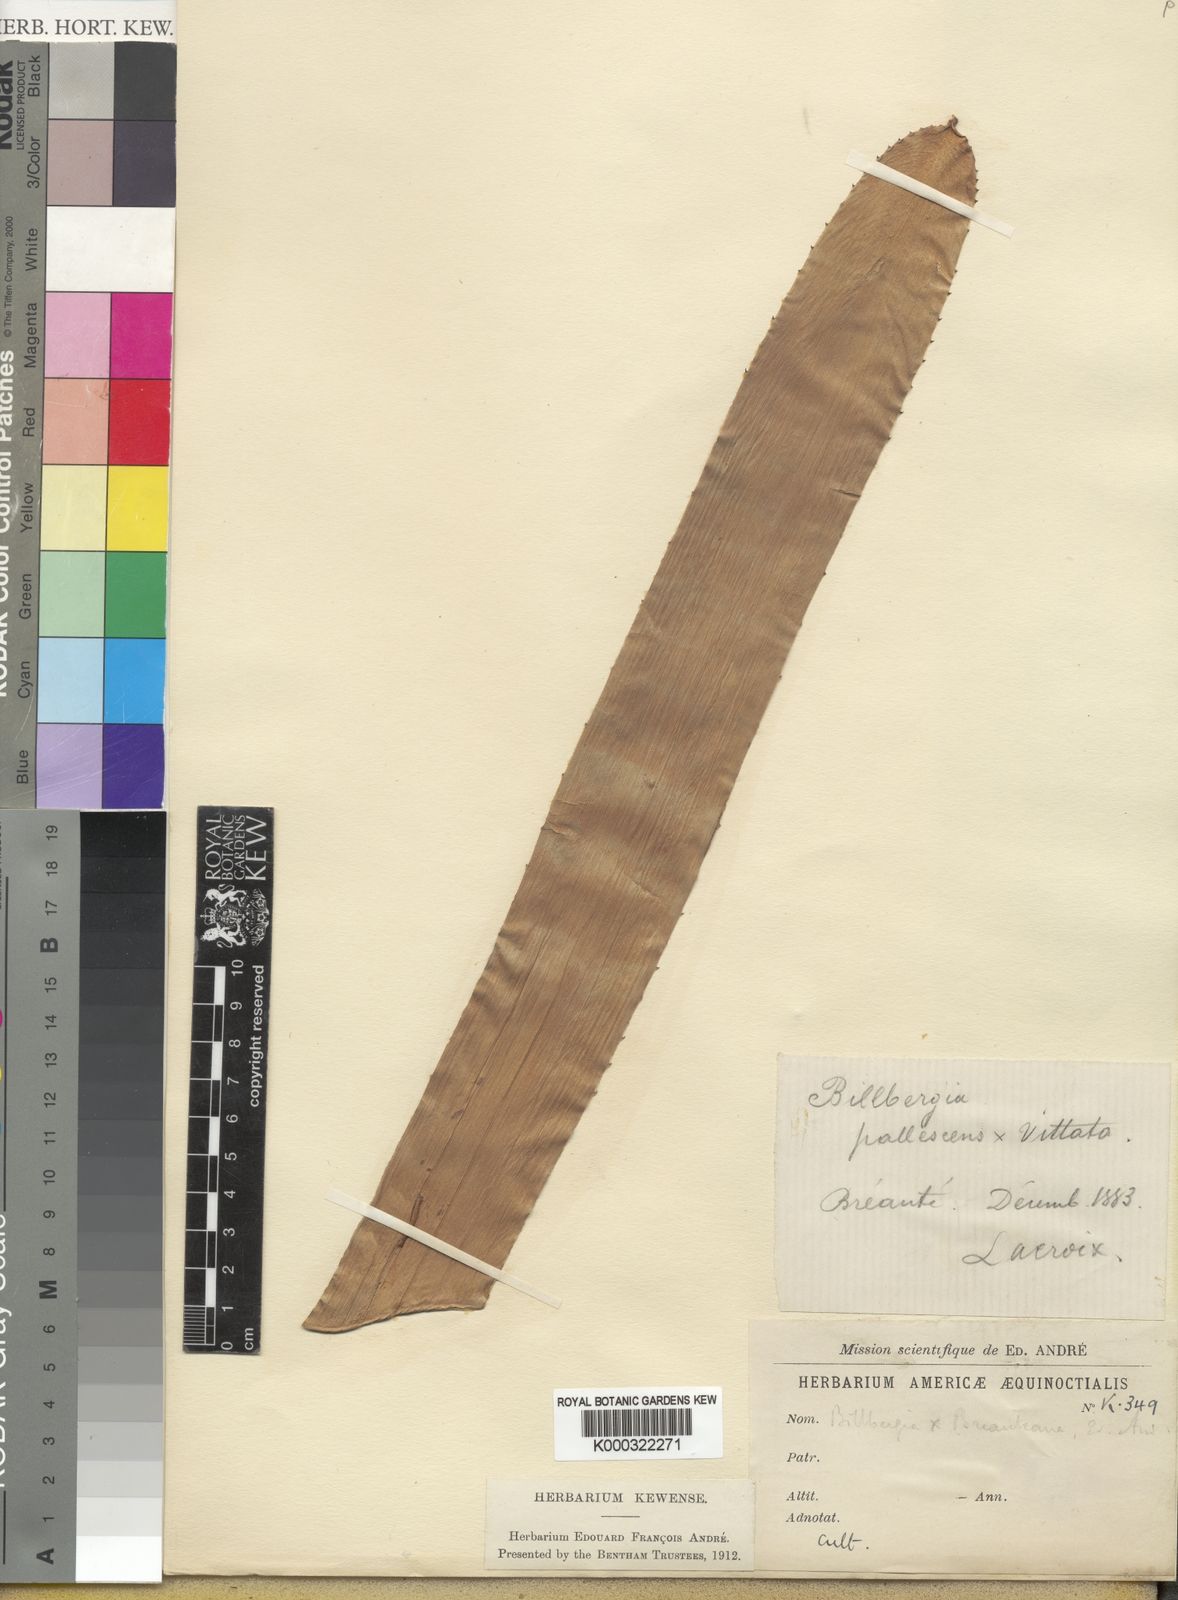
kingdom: Plantae
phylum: Tracheophyta
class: Liliopsida
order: Poales
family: Bromeliaceae
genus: Billbergia
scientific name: Billbergia joliboisii
